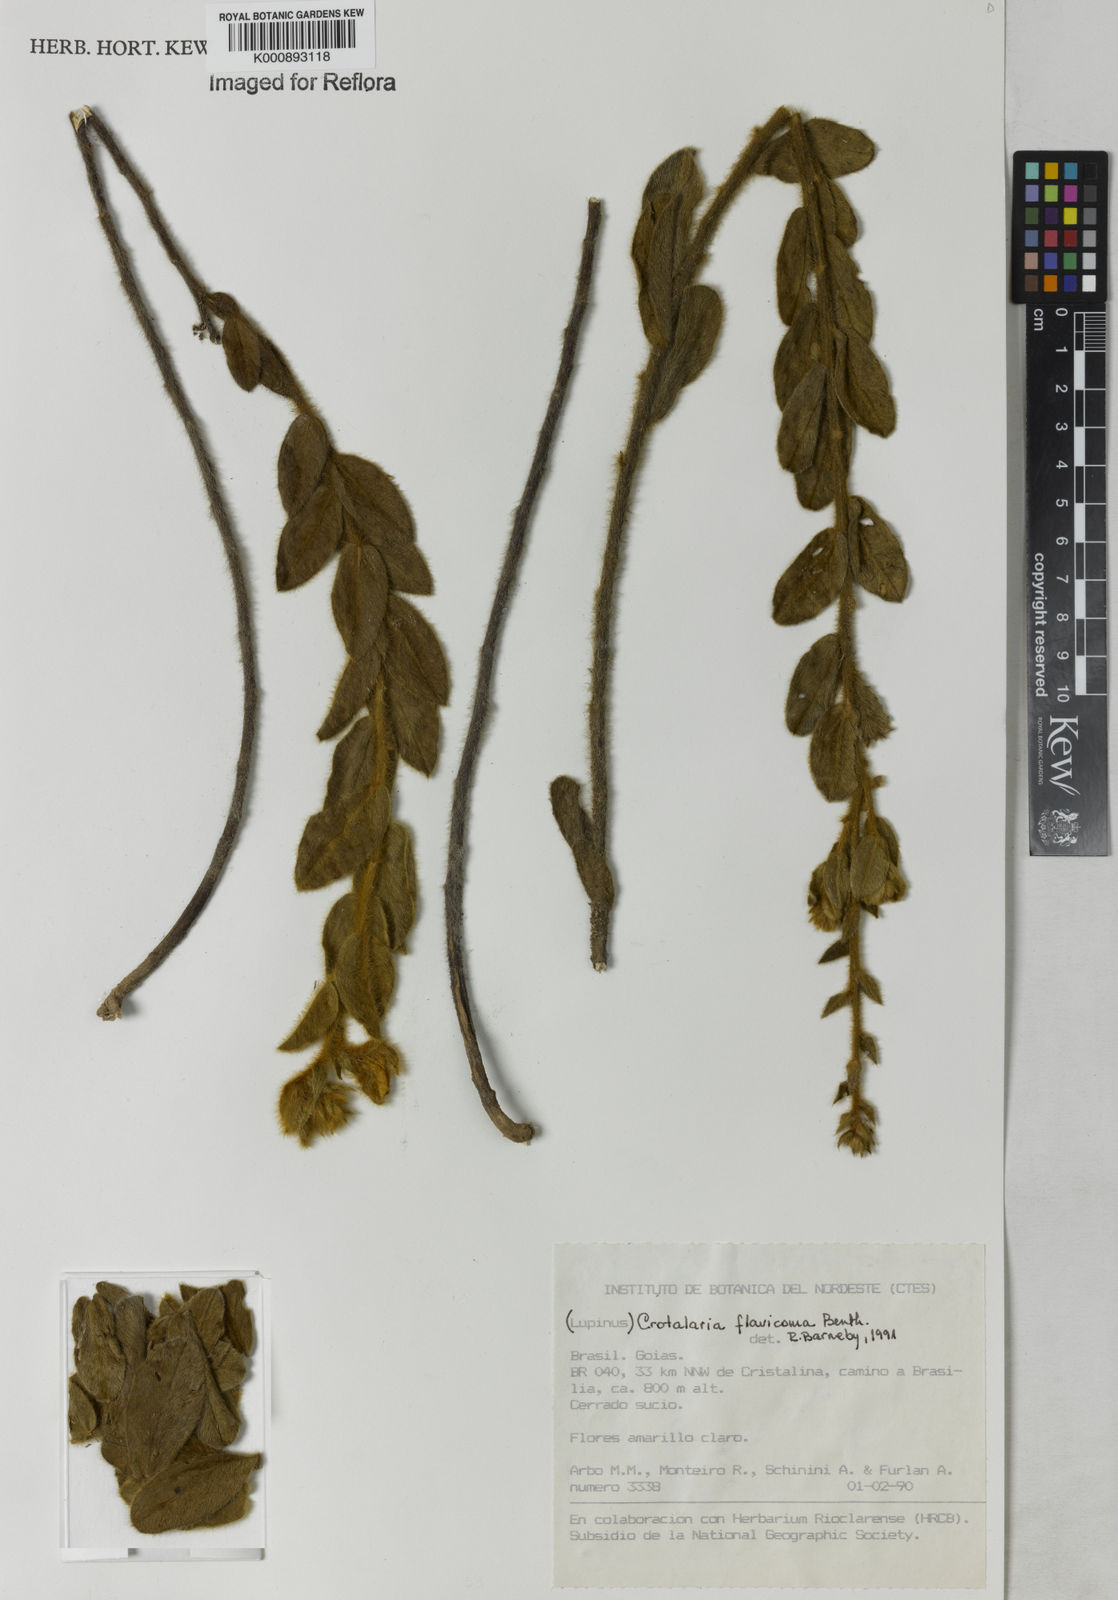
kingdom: Plantae
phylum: Tracheophyta
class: Magnoliopsida
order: Fabales
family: Fabaceae
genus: Crotalaria
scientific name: Crotalaria flavicoma
